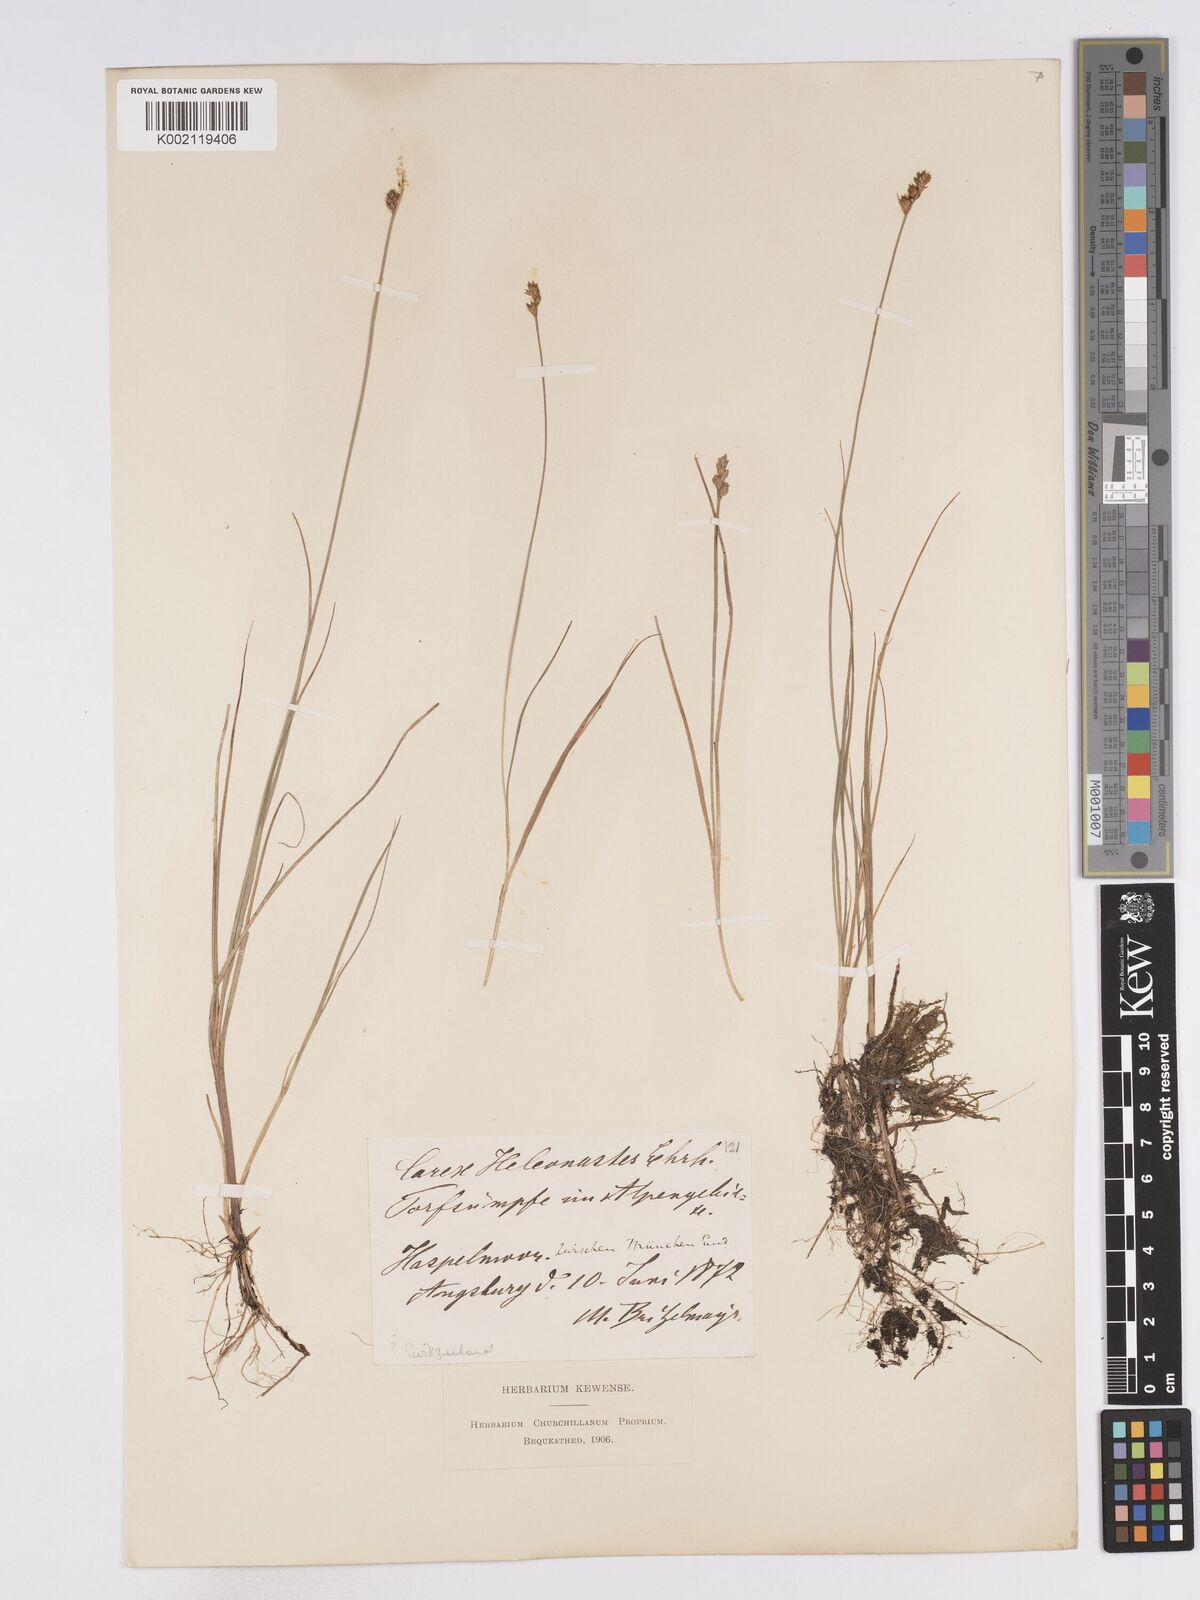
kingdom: Plantae
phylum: Tracheophyta
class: Liliopsida
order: Poales
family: Cyperaceae
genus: Carex
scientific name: Carex heleonastes
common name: Hudson bay sedge
